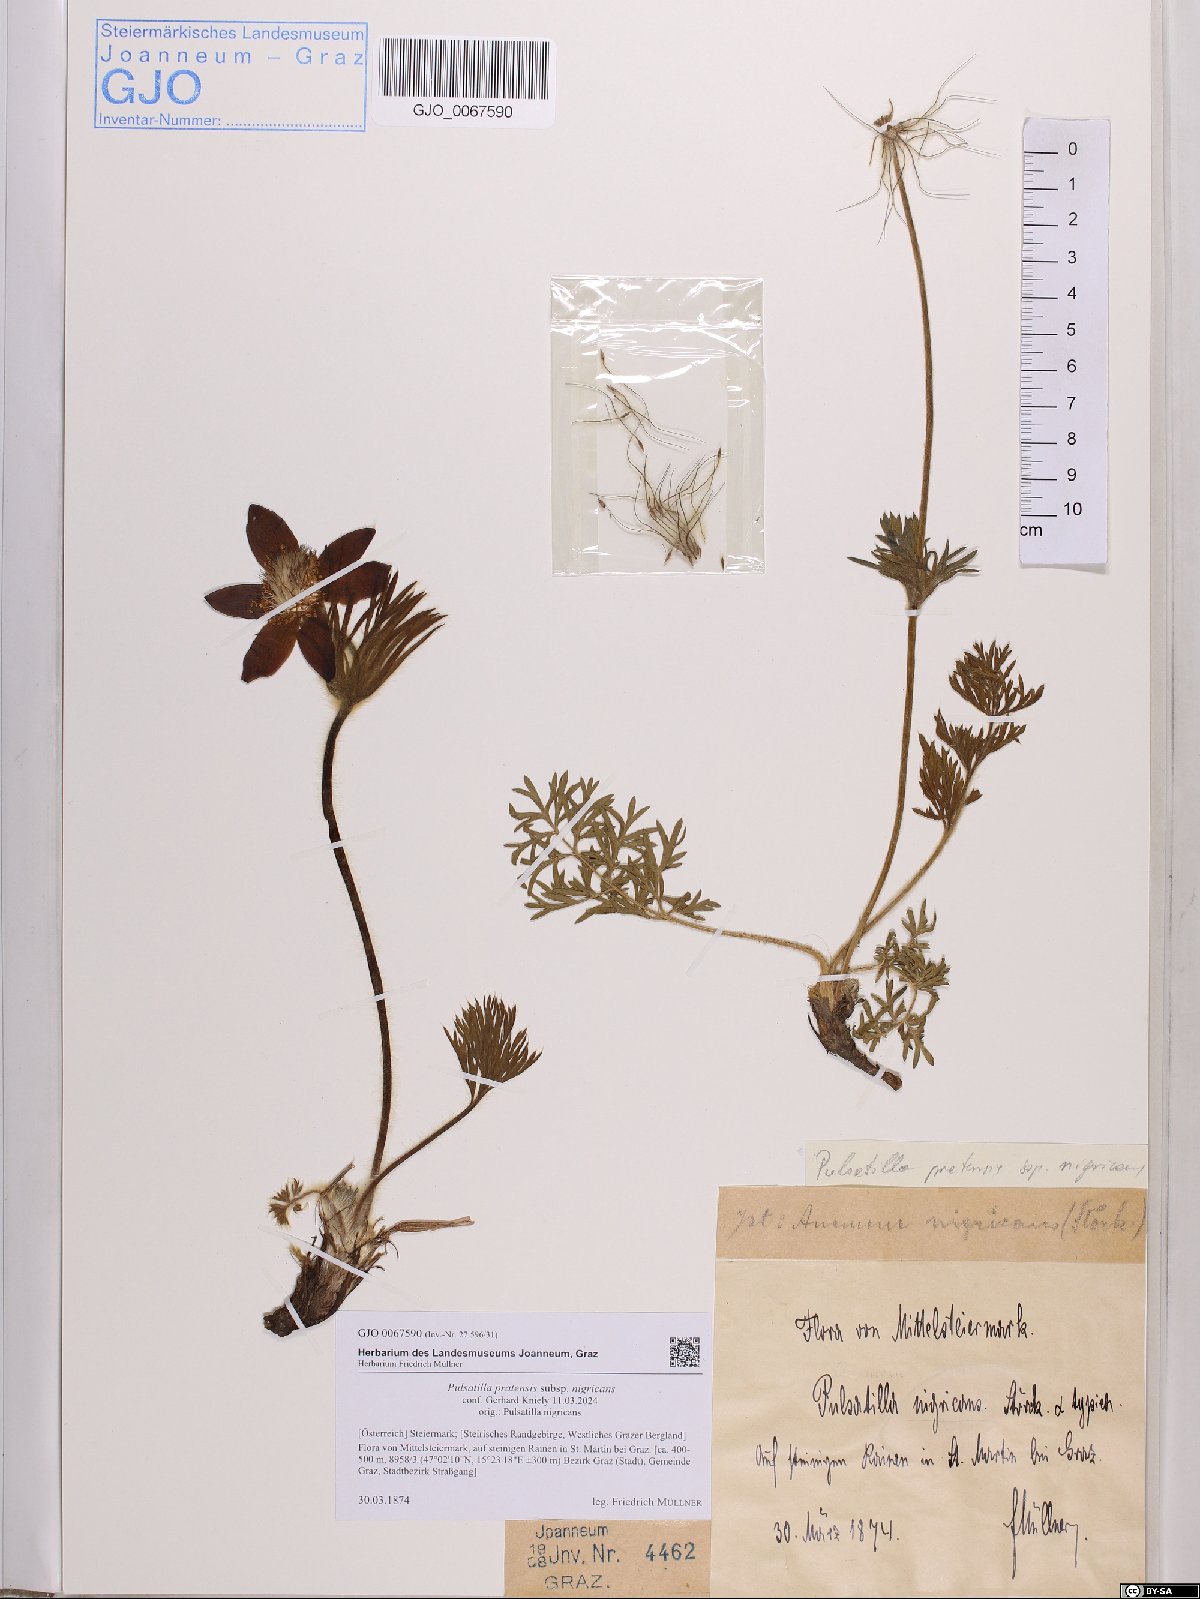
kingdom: Plantae
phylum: Tracheophyta
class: Magnoliopsida
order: Ranunculales
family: Ranunculaceae
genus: Pulsatilla
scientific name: Pulsatilla pratensis
